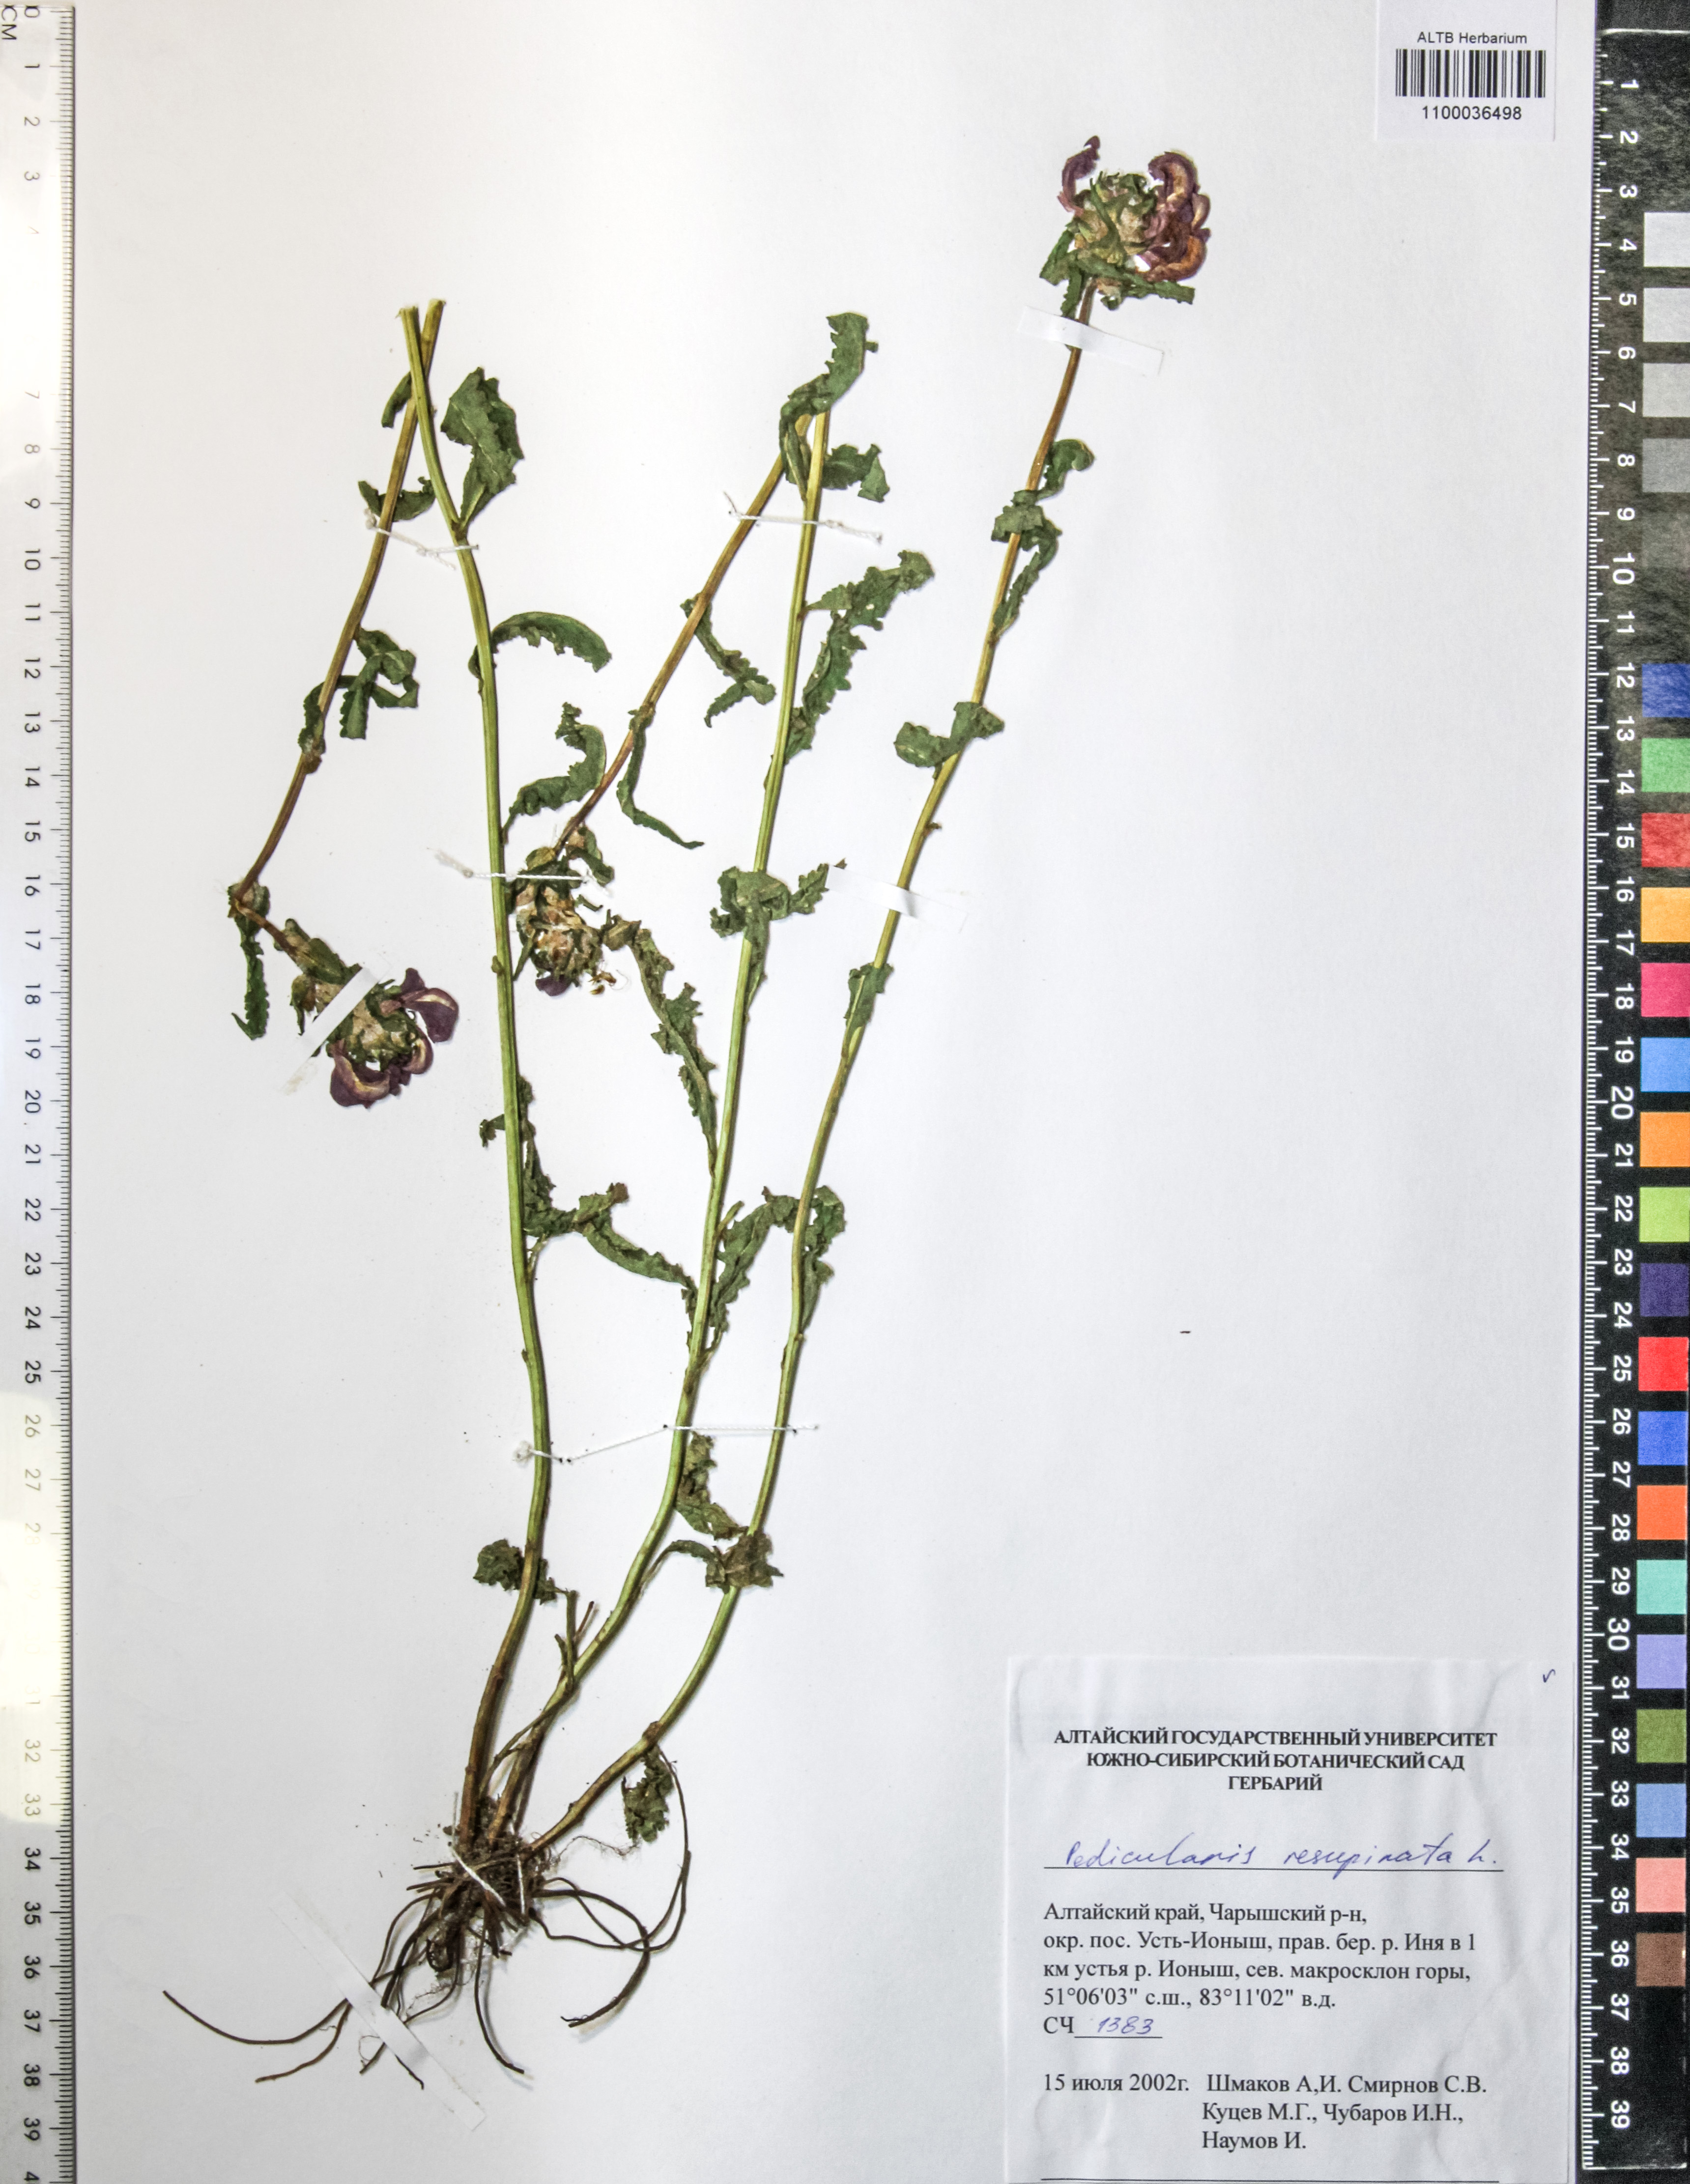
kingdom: Plantae
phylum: Tracheophyta
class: Magnoliopsida
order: Lamiales
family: Orobanchaceae
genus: Pedicularis
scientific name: Pedicularis resupinata
